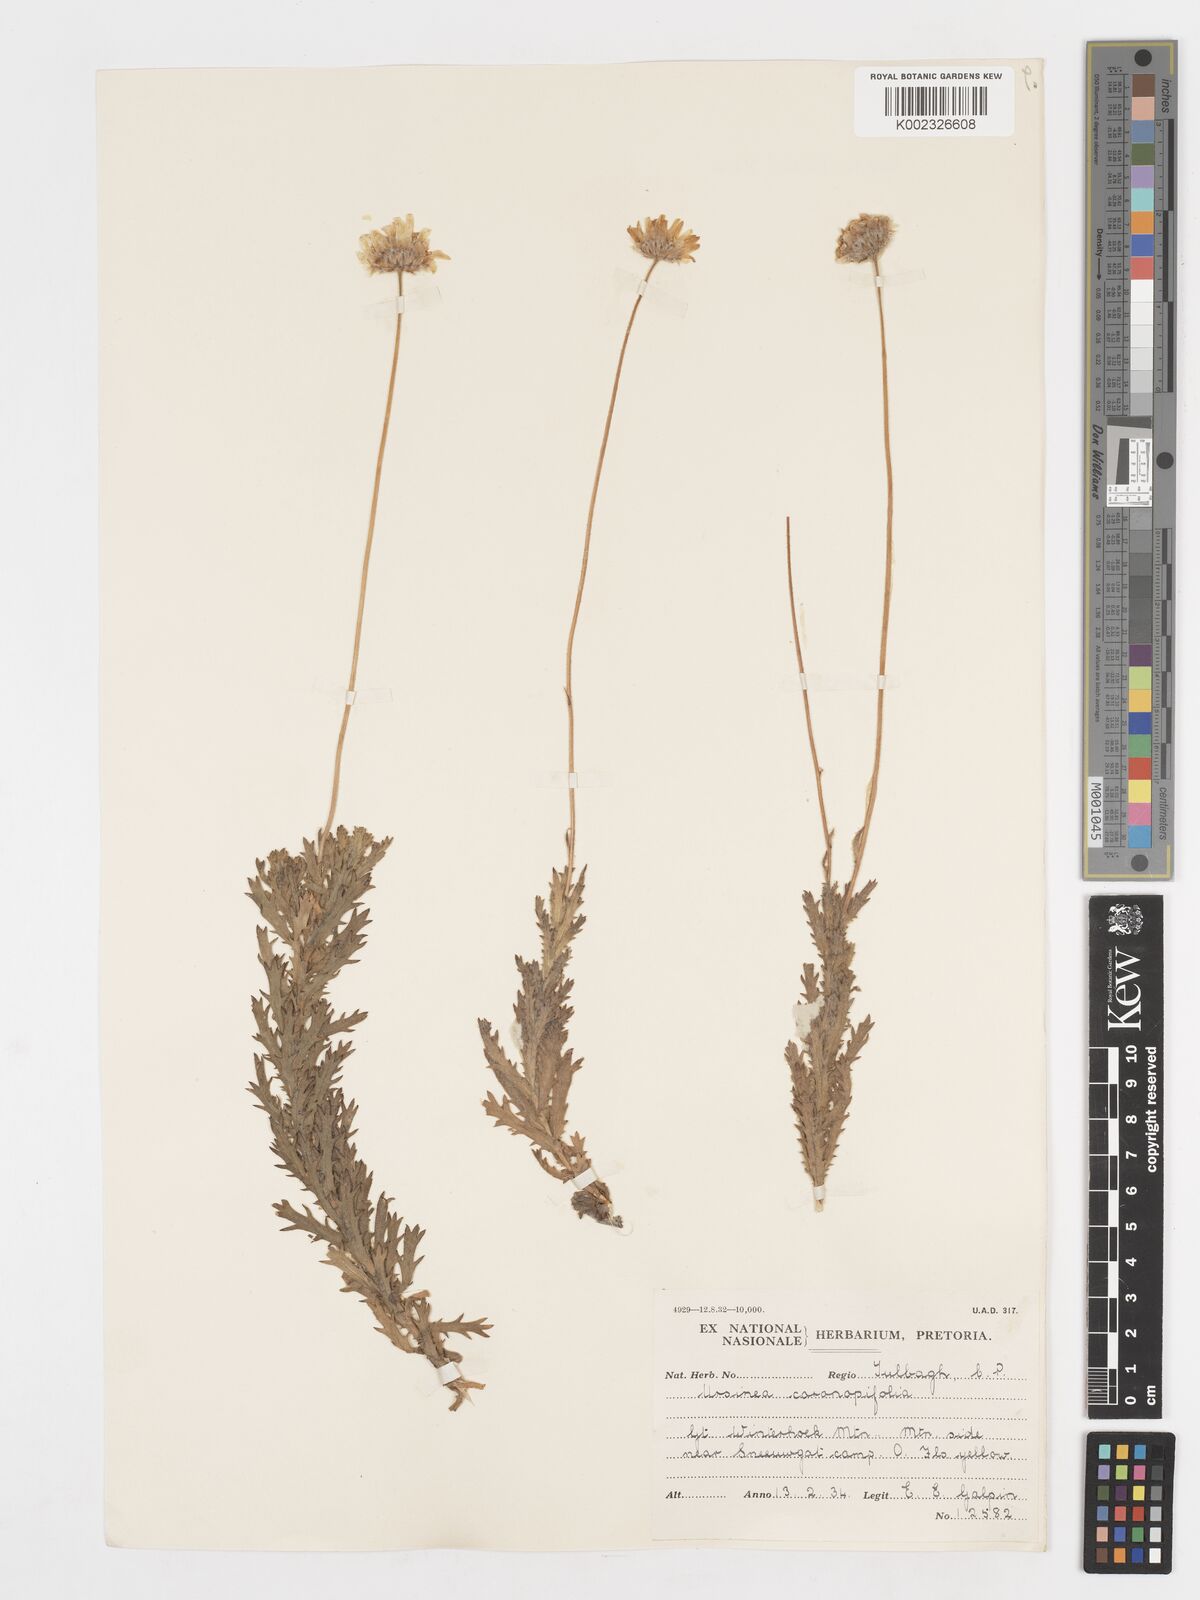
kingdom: Plantae
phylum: Tracheophyta
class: Magnoliopsida
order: Asterales
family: Asteraceae
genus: Ursinia
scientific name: Ursinia coronopifolia
